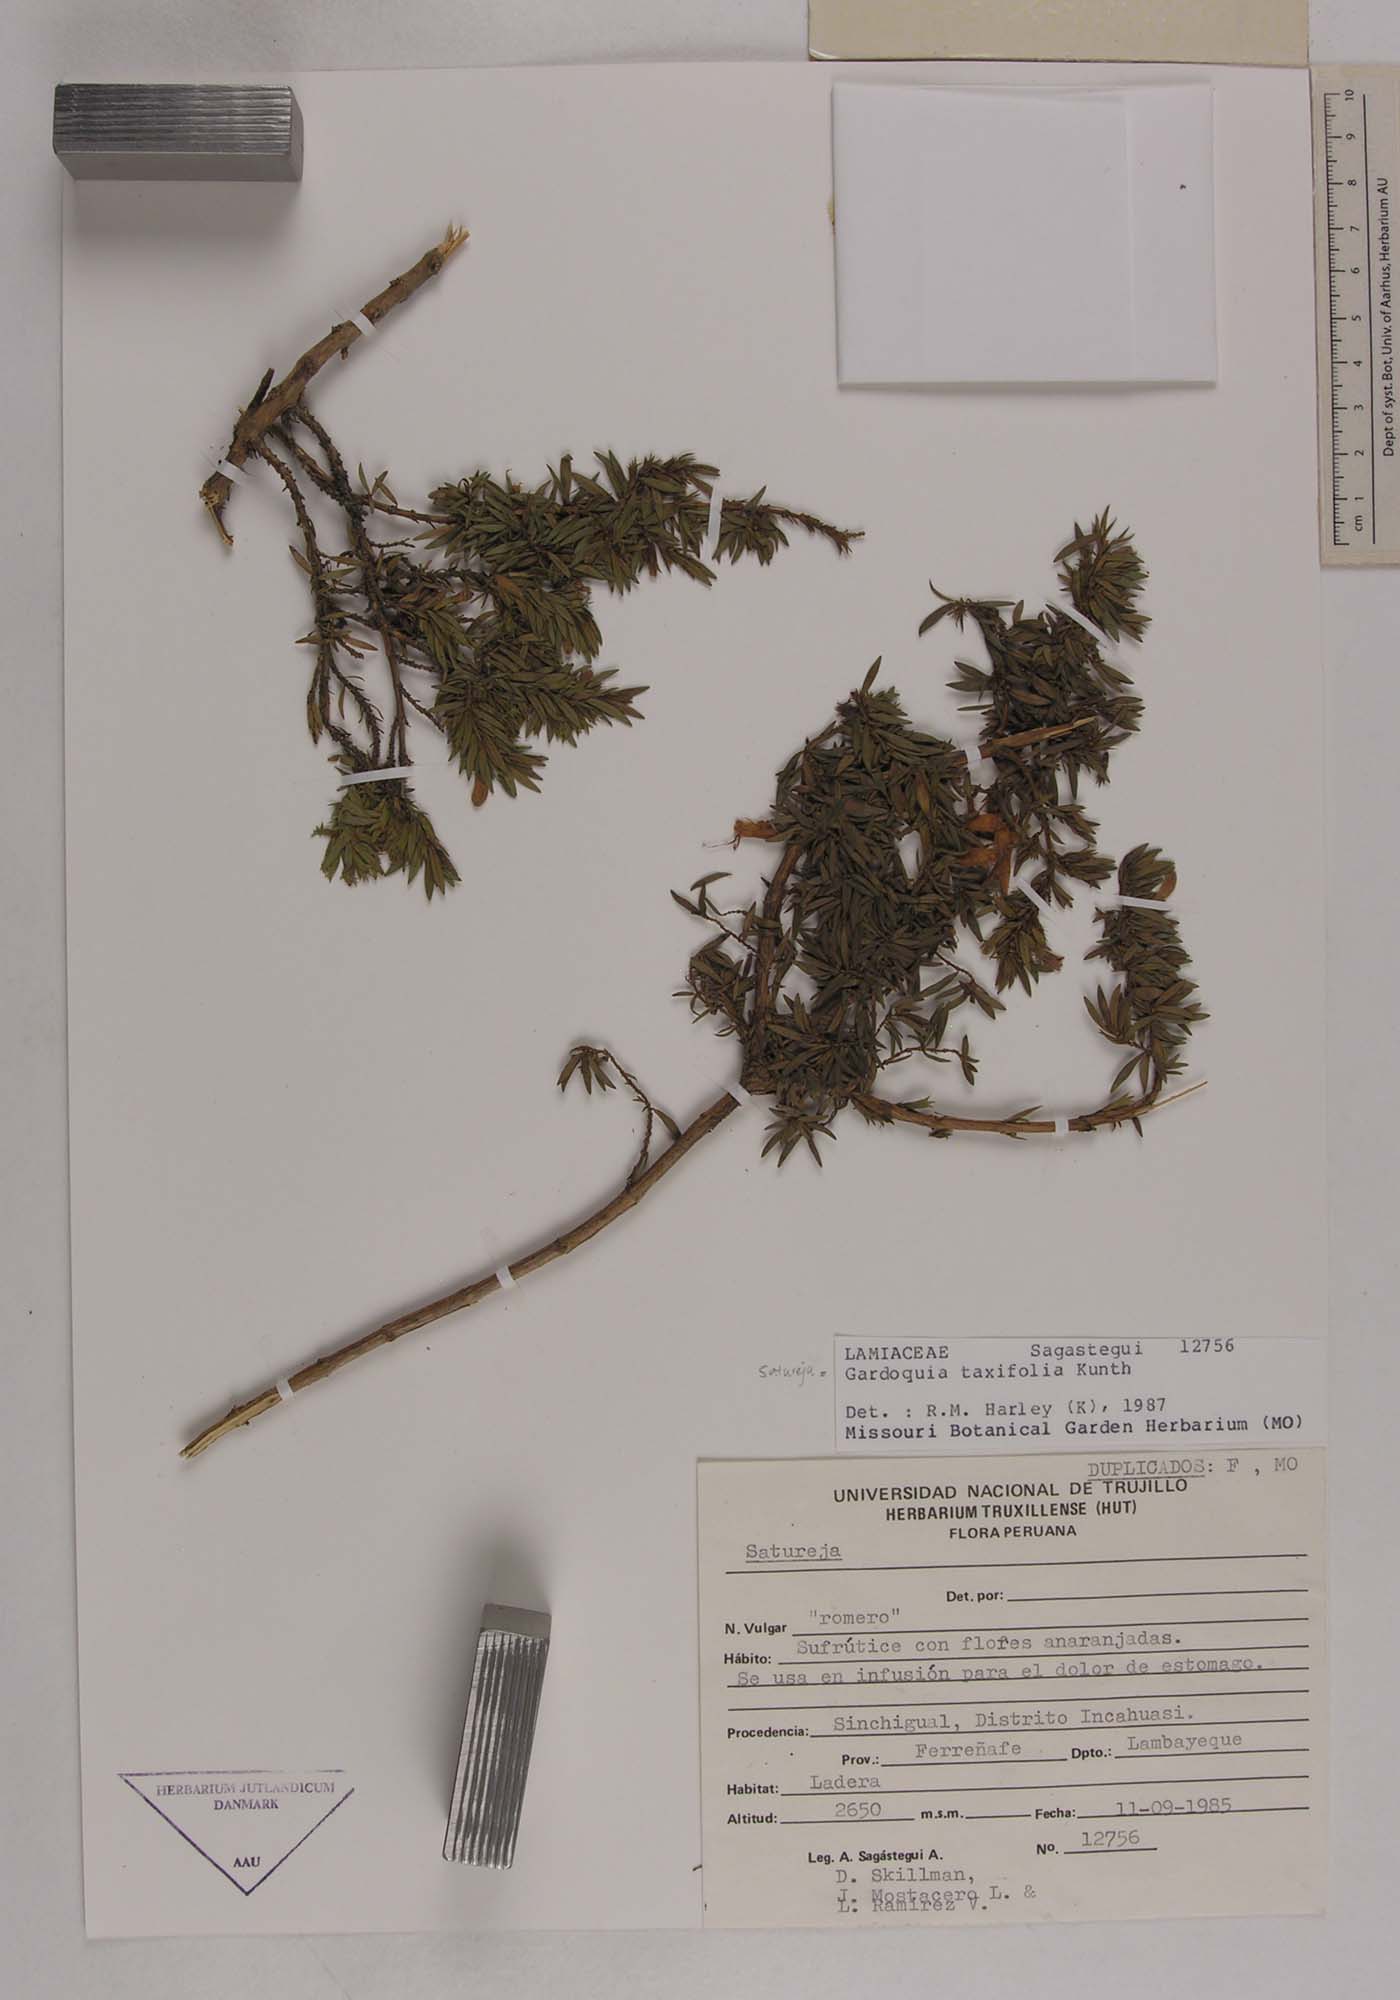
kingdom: Plantae
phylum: Tracheophyta
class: Magnoliopsida
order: Lamiales
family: Lamiaceae
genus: Clinopodium
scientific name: Clinopodium taxifolium
